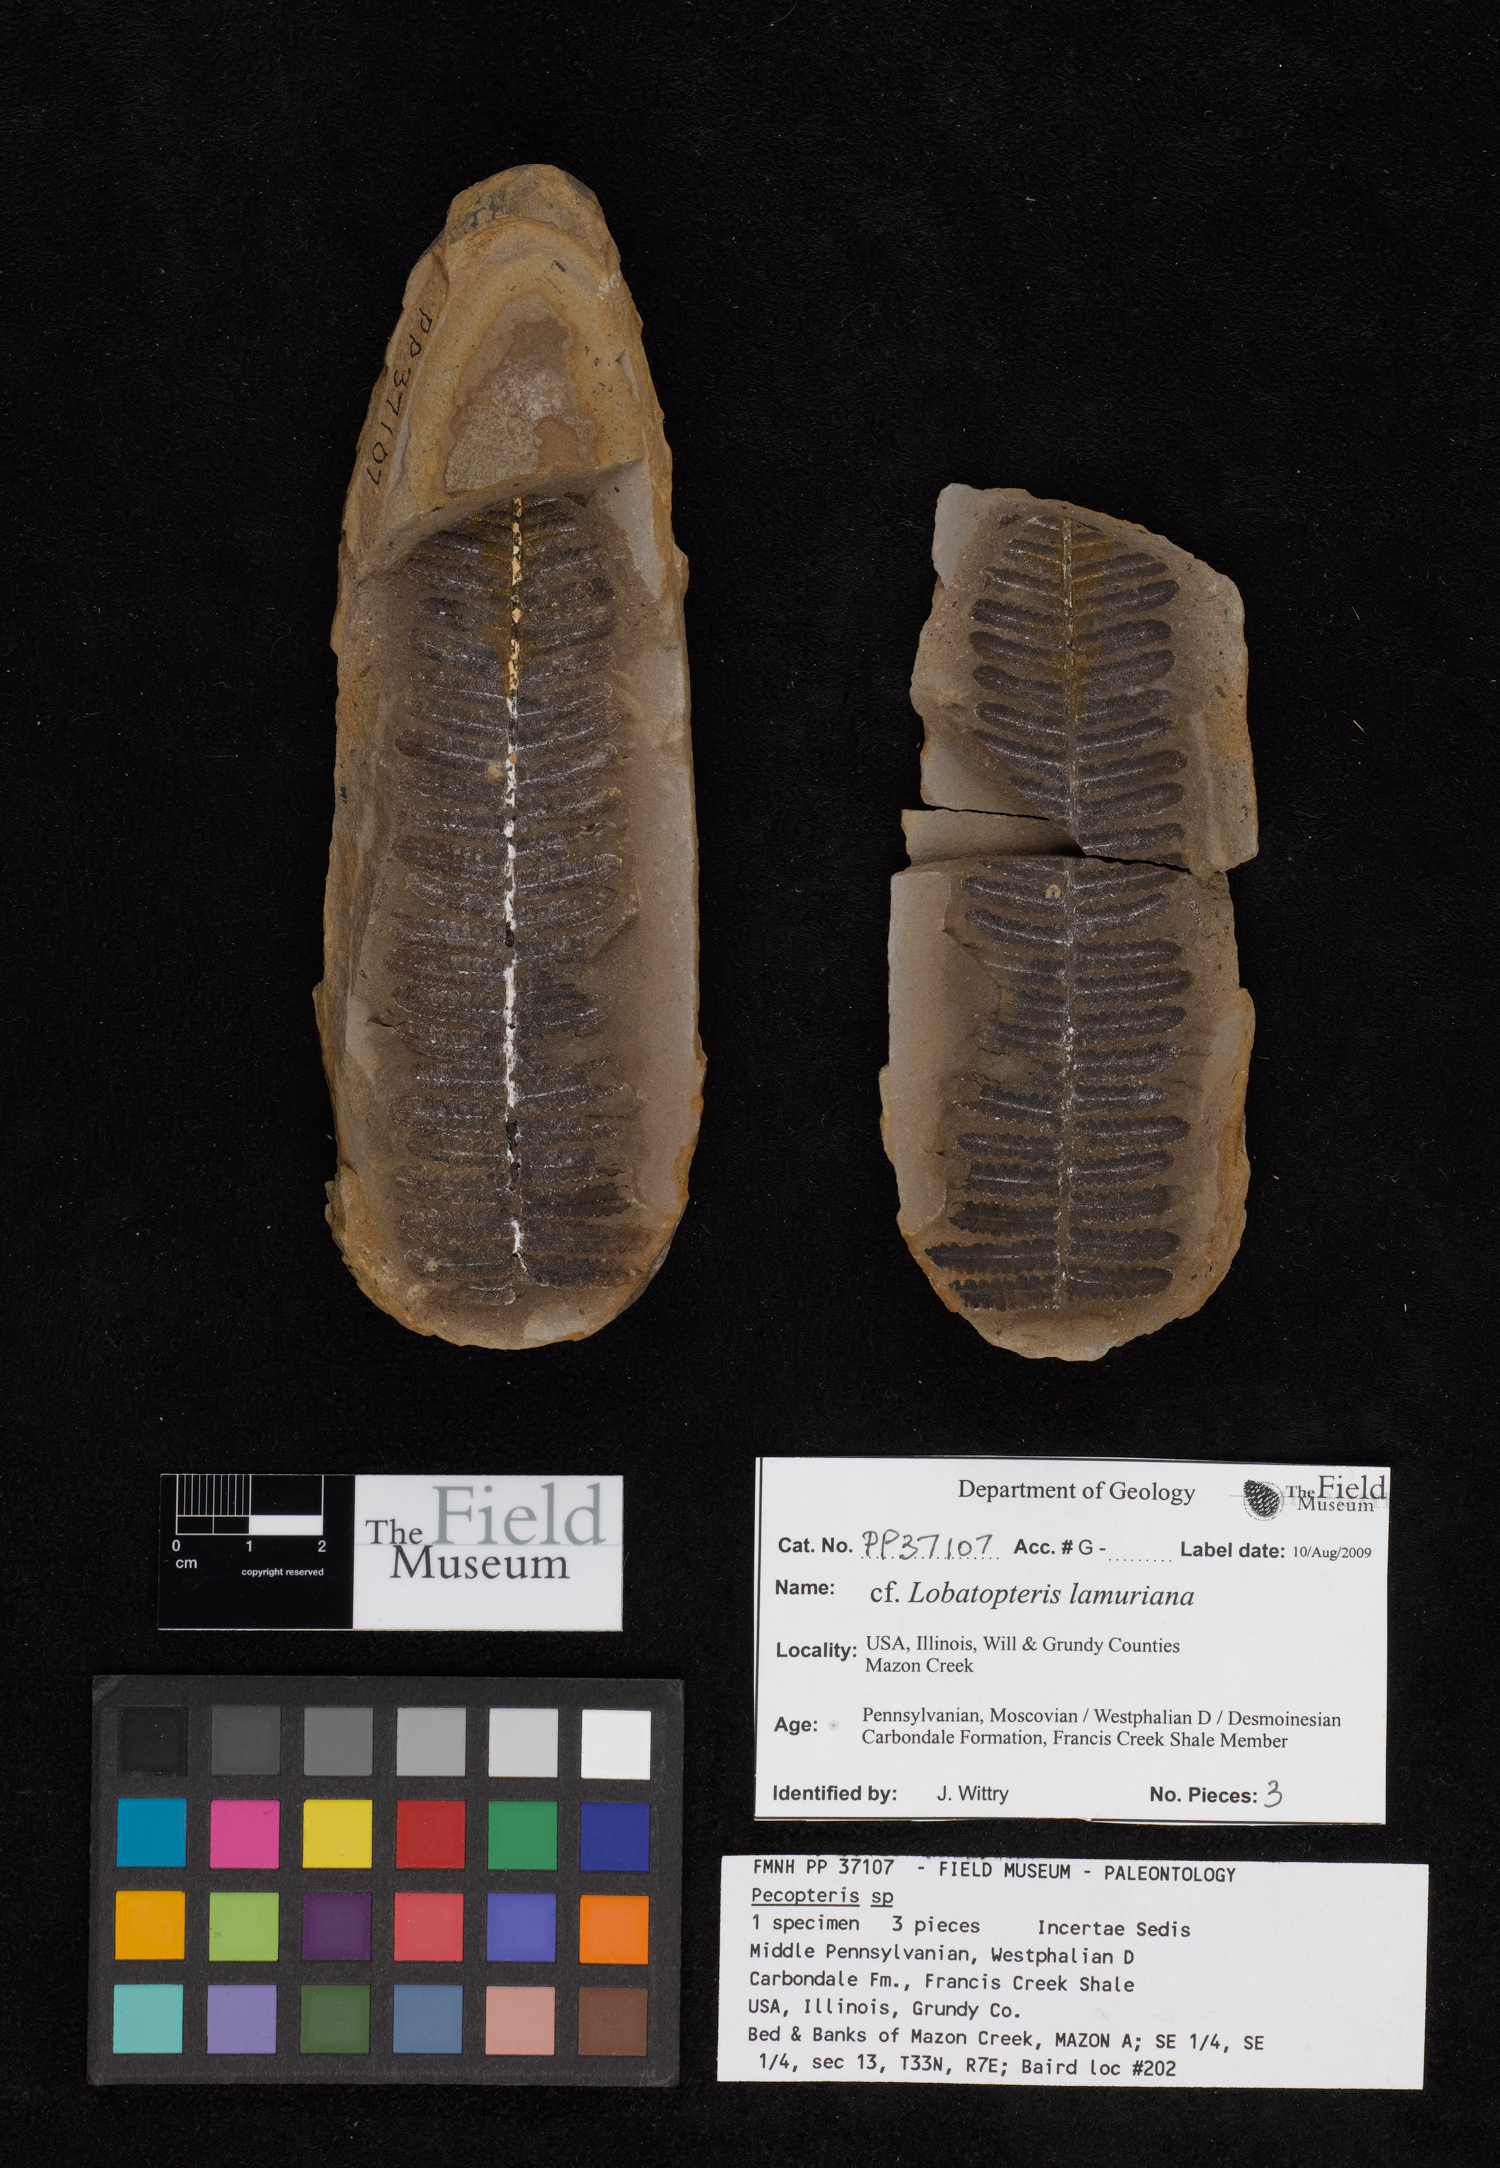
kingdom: Plantae
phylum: Tracheophyta
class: Polypodiopsida
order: Marattiales
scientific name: Marattiales
